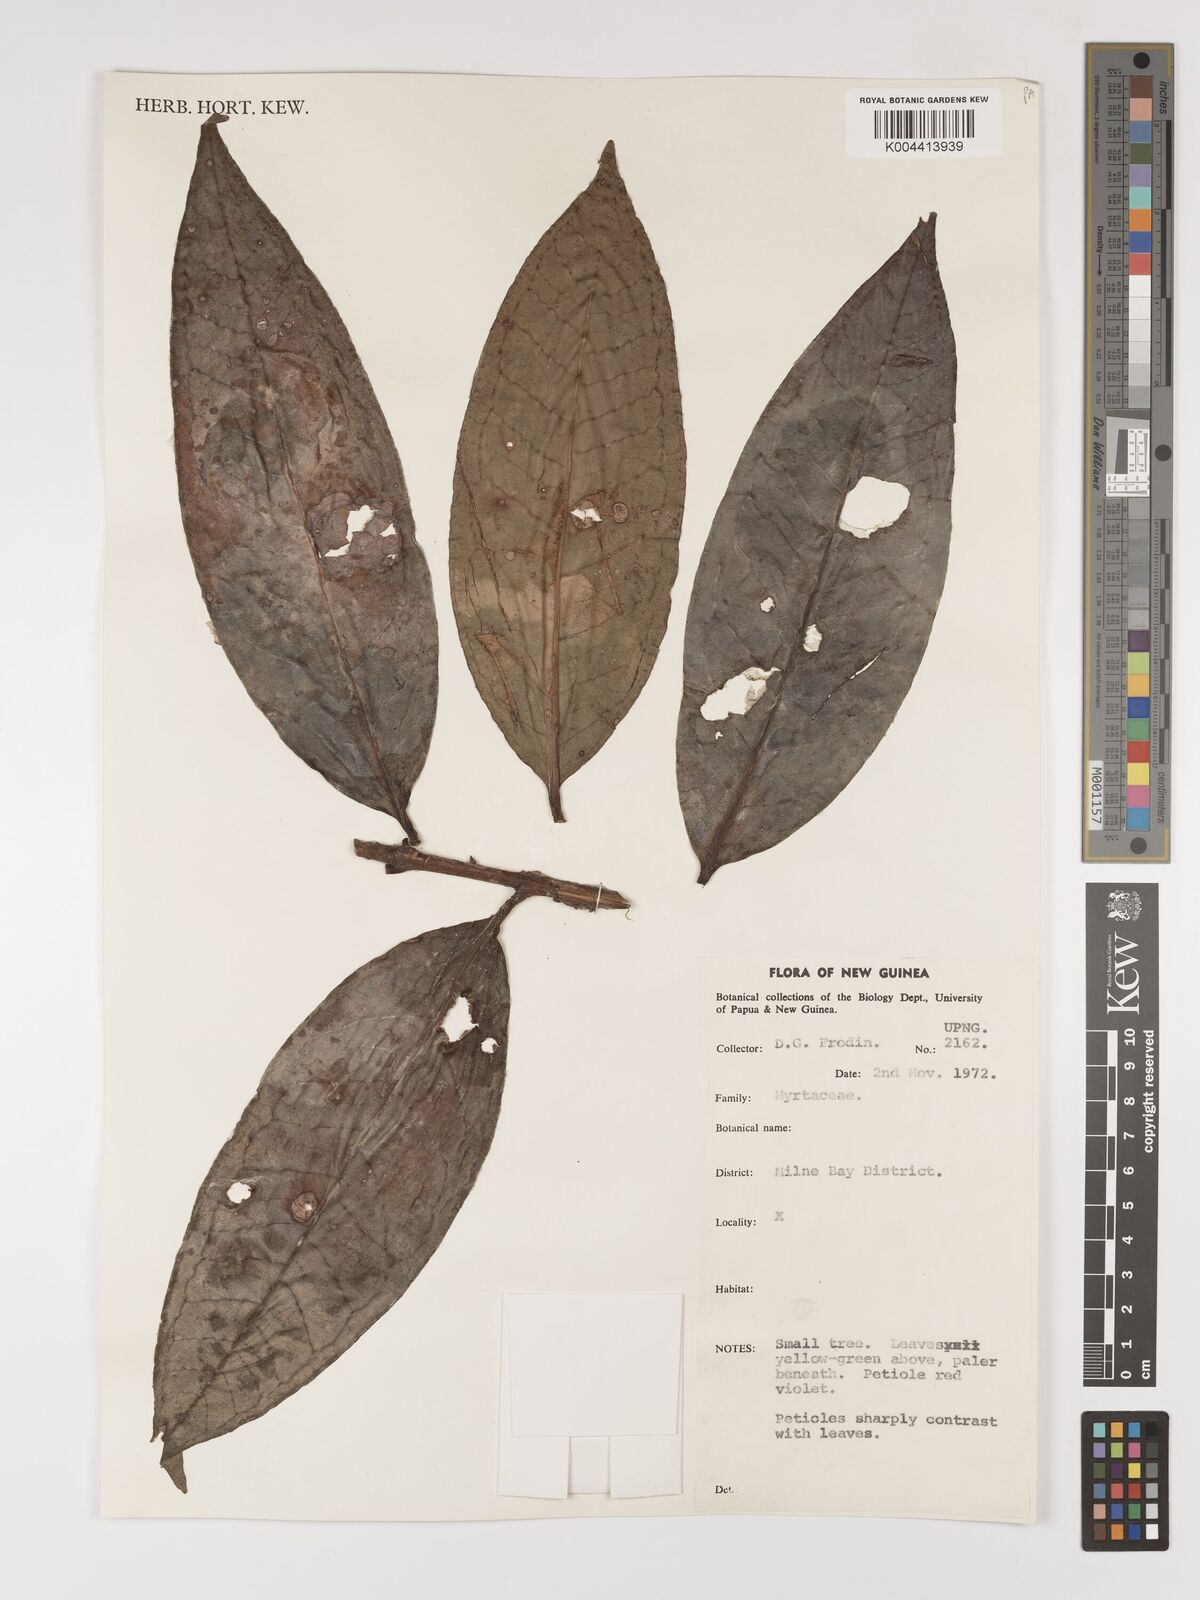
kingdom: Plantae
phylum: Tracheophyta
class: Magnoliopsida
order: Myrtales
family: Myrtaceae
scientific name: Myrtaceae
